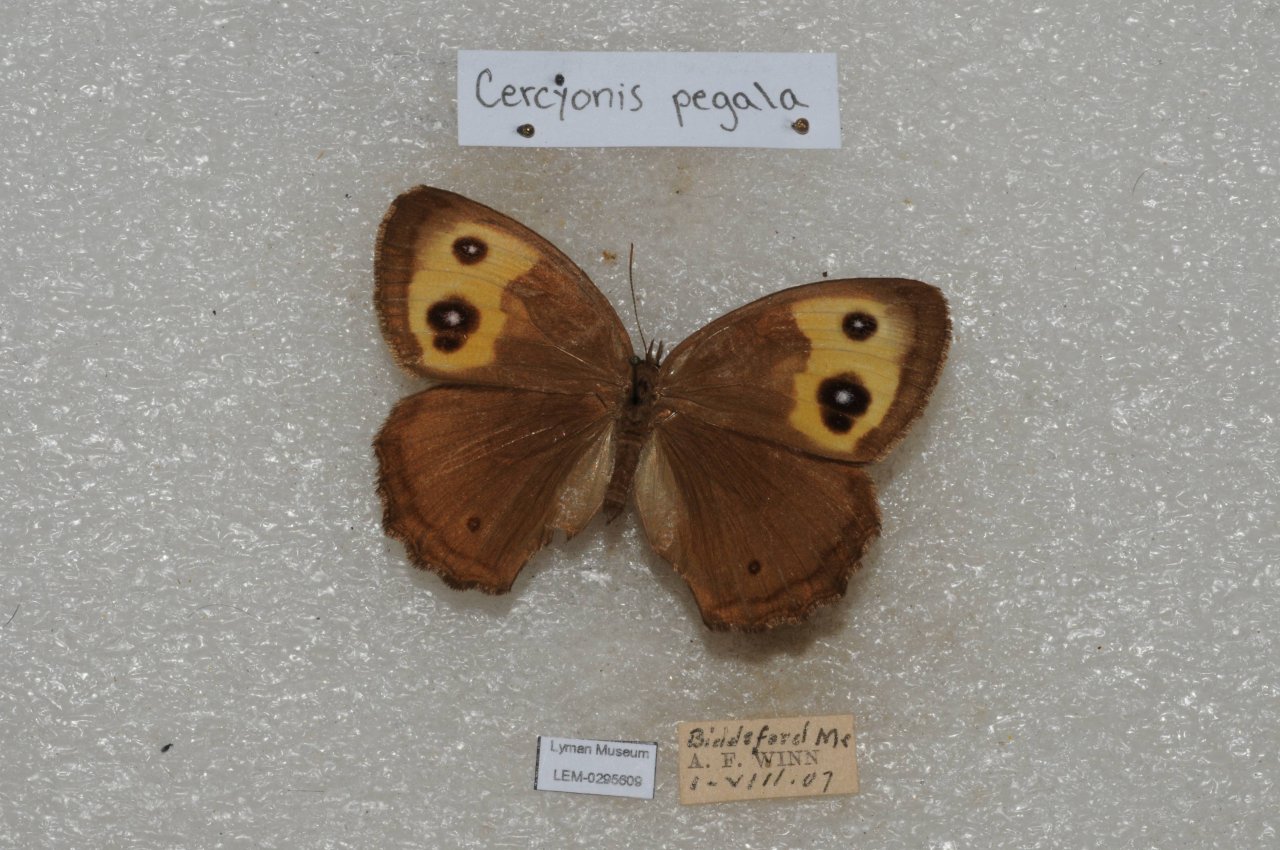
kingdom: Animalia
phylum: Arthropoda
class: Insecta
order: Lepidoptera
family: Nymphalidae
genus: Cercyonis
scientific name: Cercyonis pegala
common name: Common Wood-Nymph
